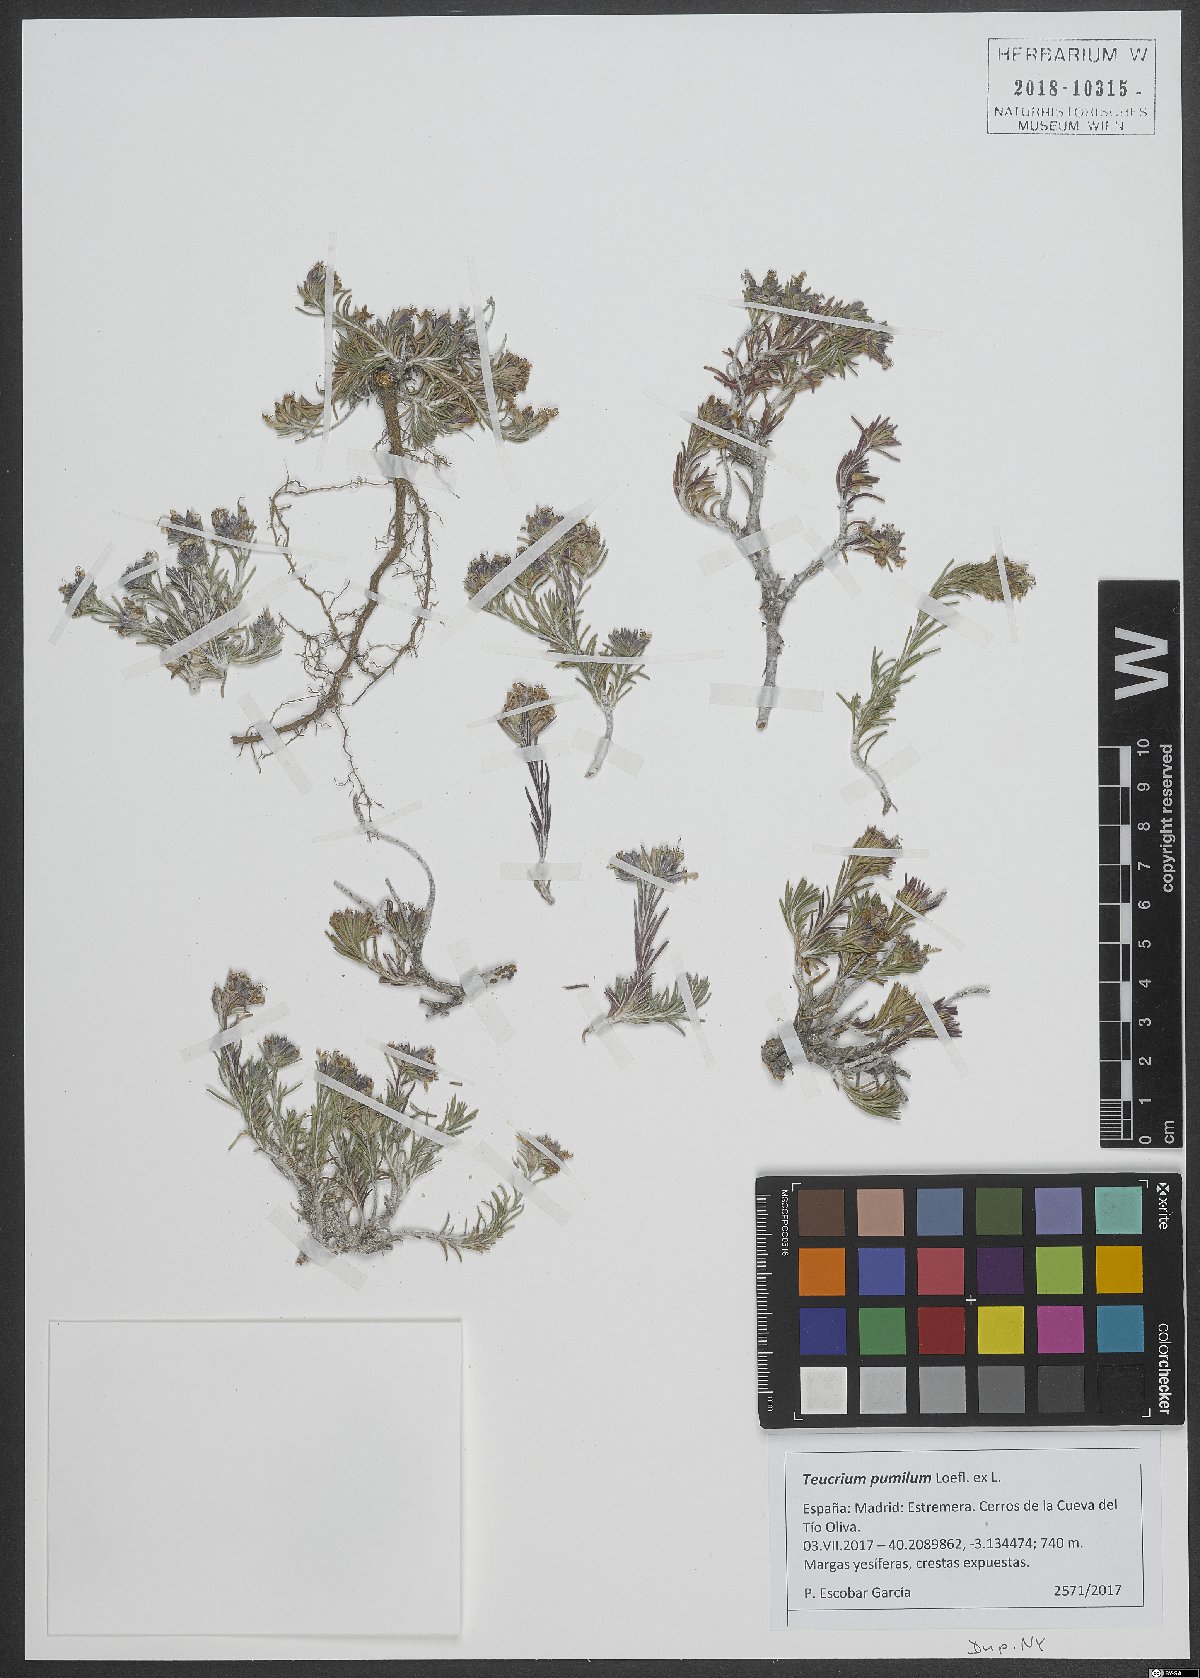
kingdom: Plantae
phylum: Tracheophyta
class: Magnoliopsida
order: Lamiales
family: Lamiaceae
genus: Teucrium
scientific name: Teucrium pumilum
